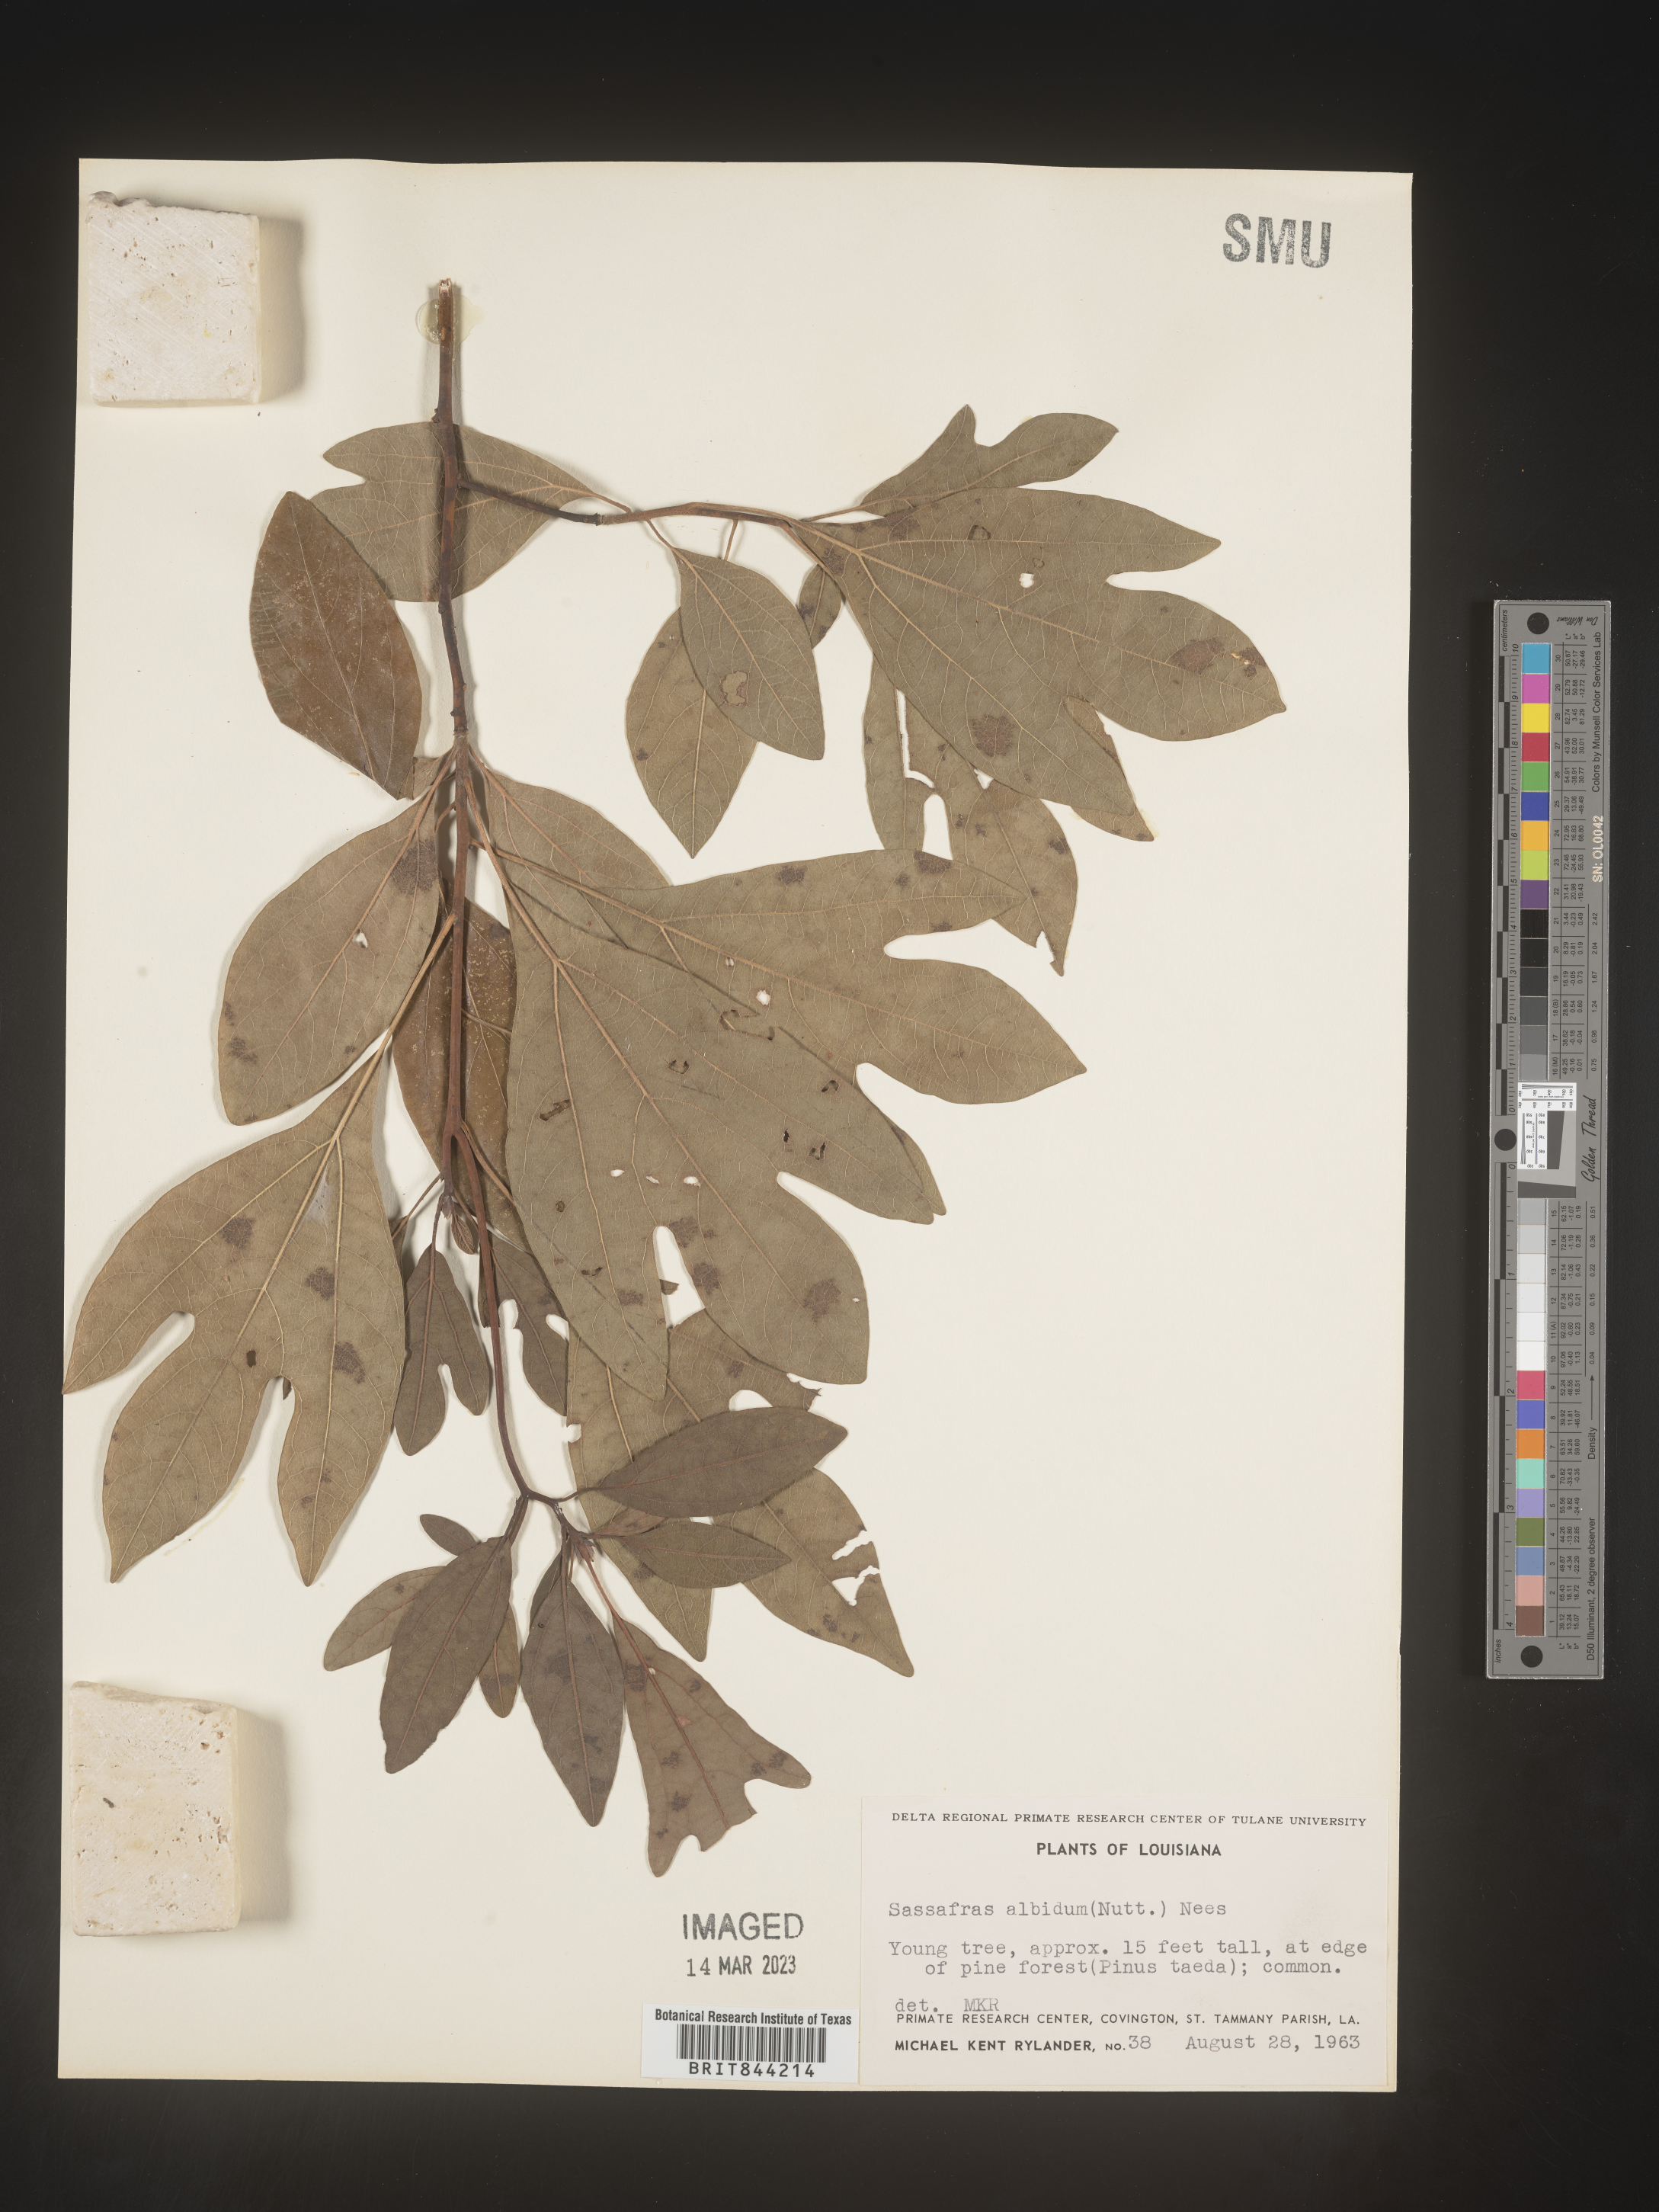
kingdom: Plantae
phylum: Tracheophyta
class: Magnoliopsida
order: Laurales
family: Lauraceae
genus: Sassafras
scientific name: Sassafras albidum
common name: Sassafras
